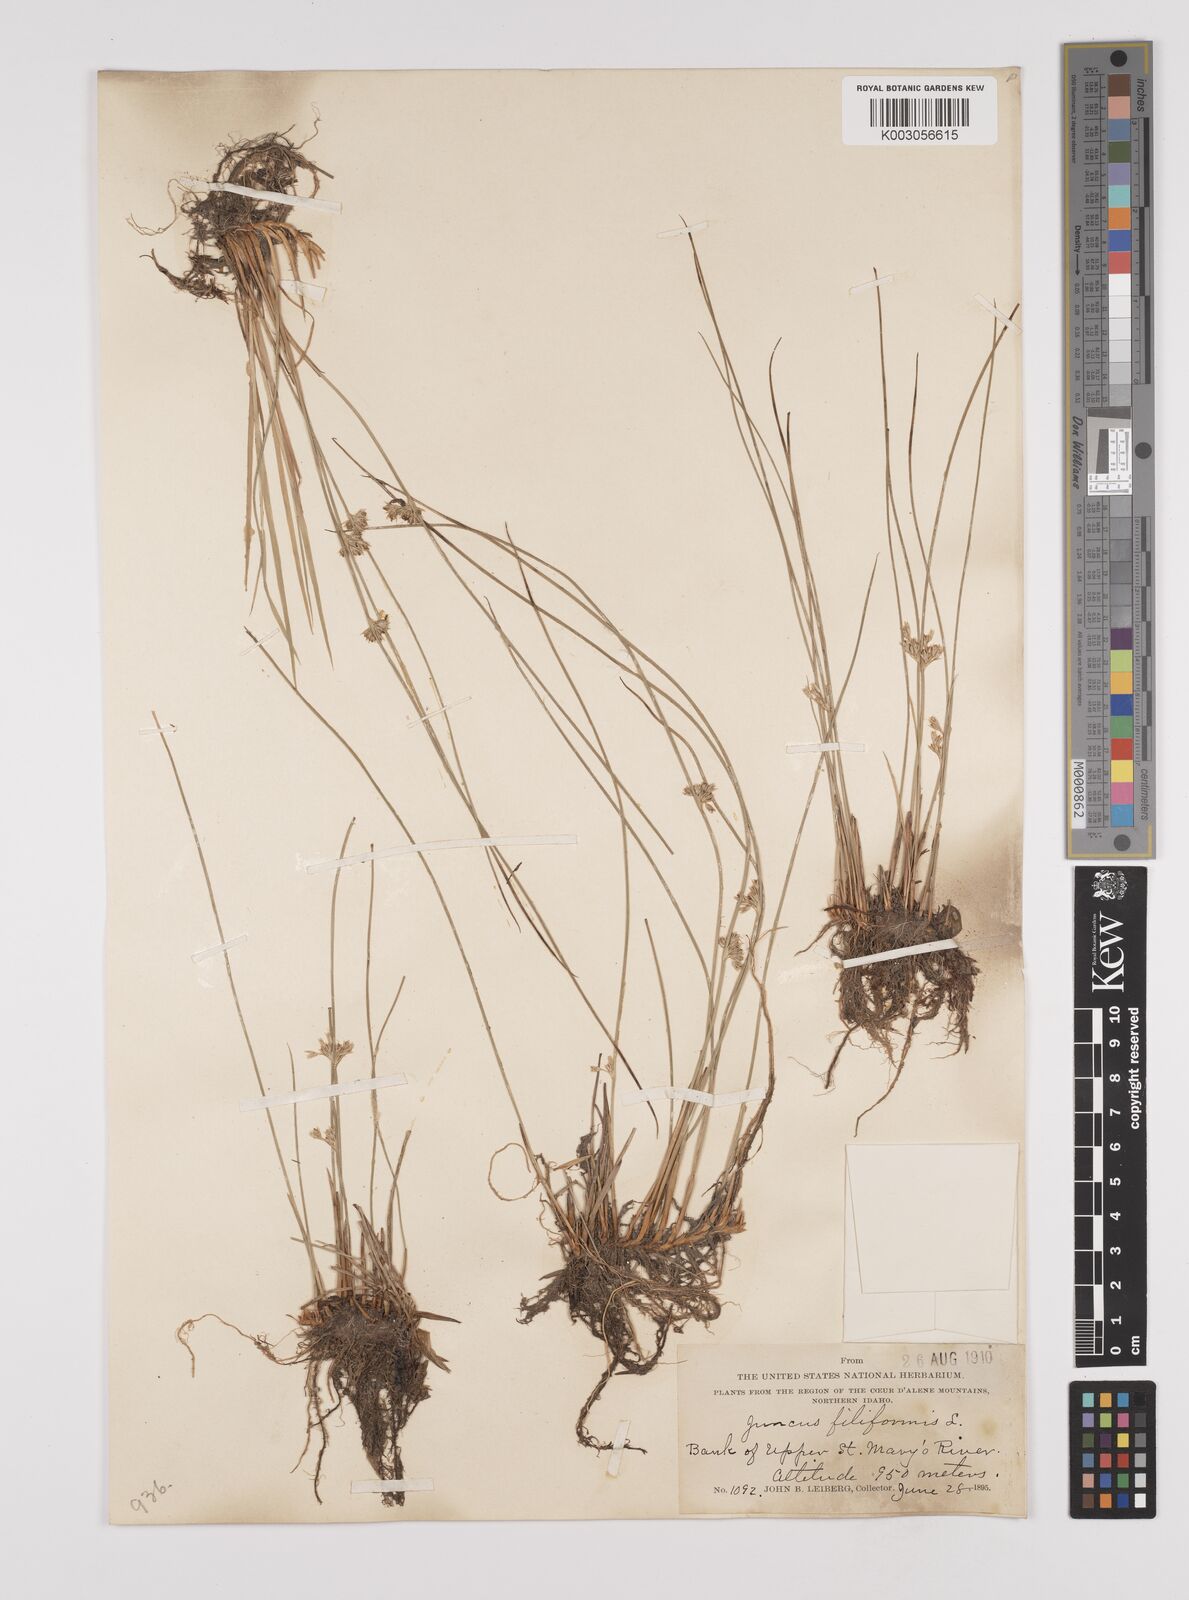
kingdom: Plantae
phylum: Tracheophyta
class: Liliopsida
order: Poales
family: Juncaceae
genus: Juncus
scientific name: Juncus filiformis
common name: Thread rush
